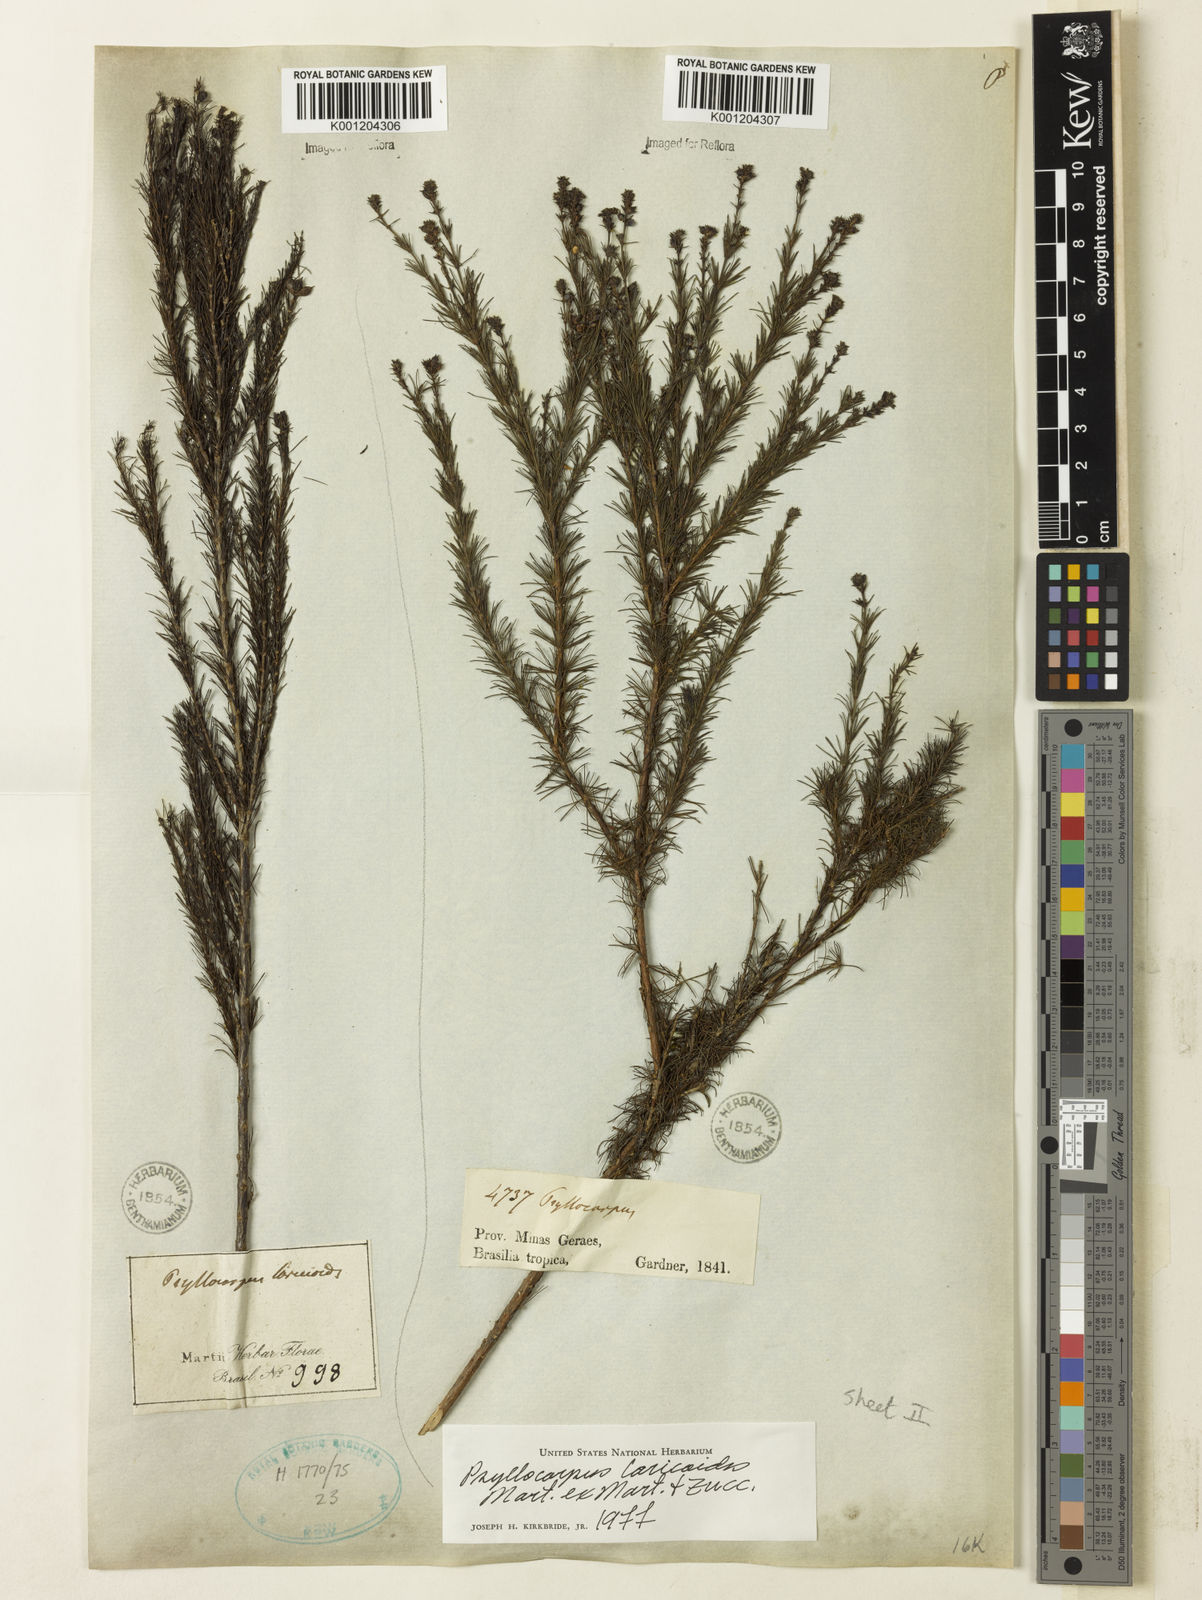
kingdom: Plantae
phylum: Tracheophyta
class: Magnoliopsida
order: Gentianales
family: Rubiaceae
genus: Psyllocarpus
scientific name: Psyllocarpus laricoides
